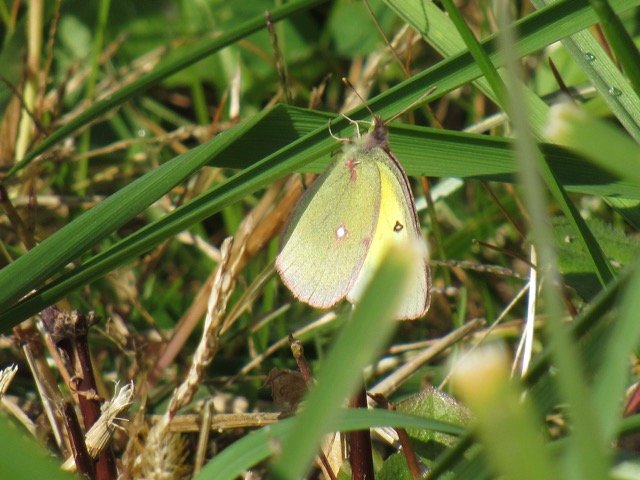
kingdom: Animalia
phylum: Arthropoda
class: Insecta
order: Lepidoptera
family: Pieridae
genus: Colias
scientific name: Colias philodice
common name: Clouded Sulphur
